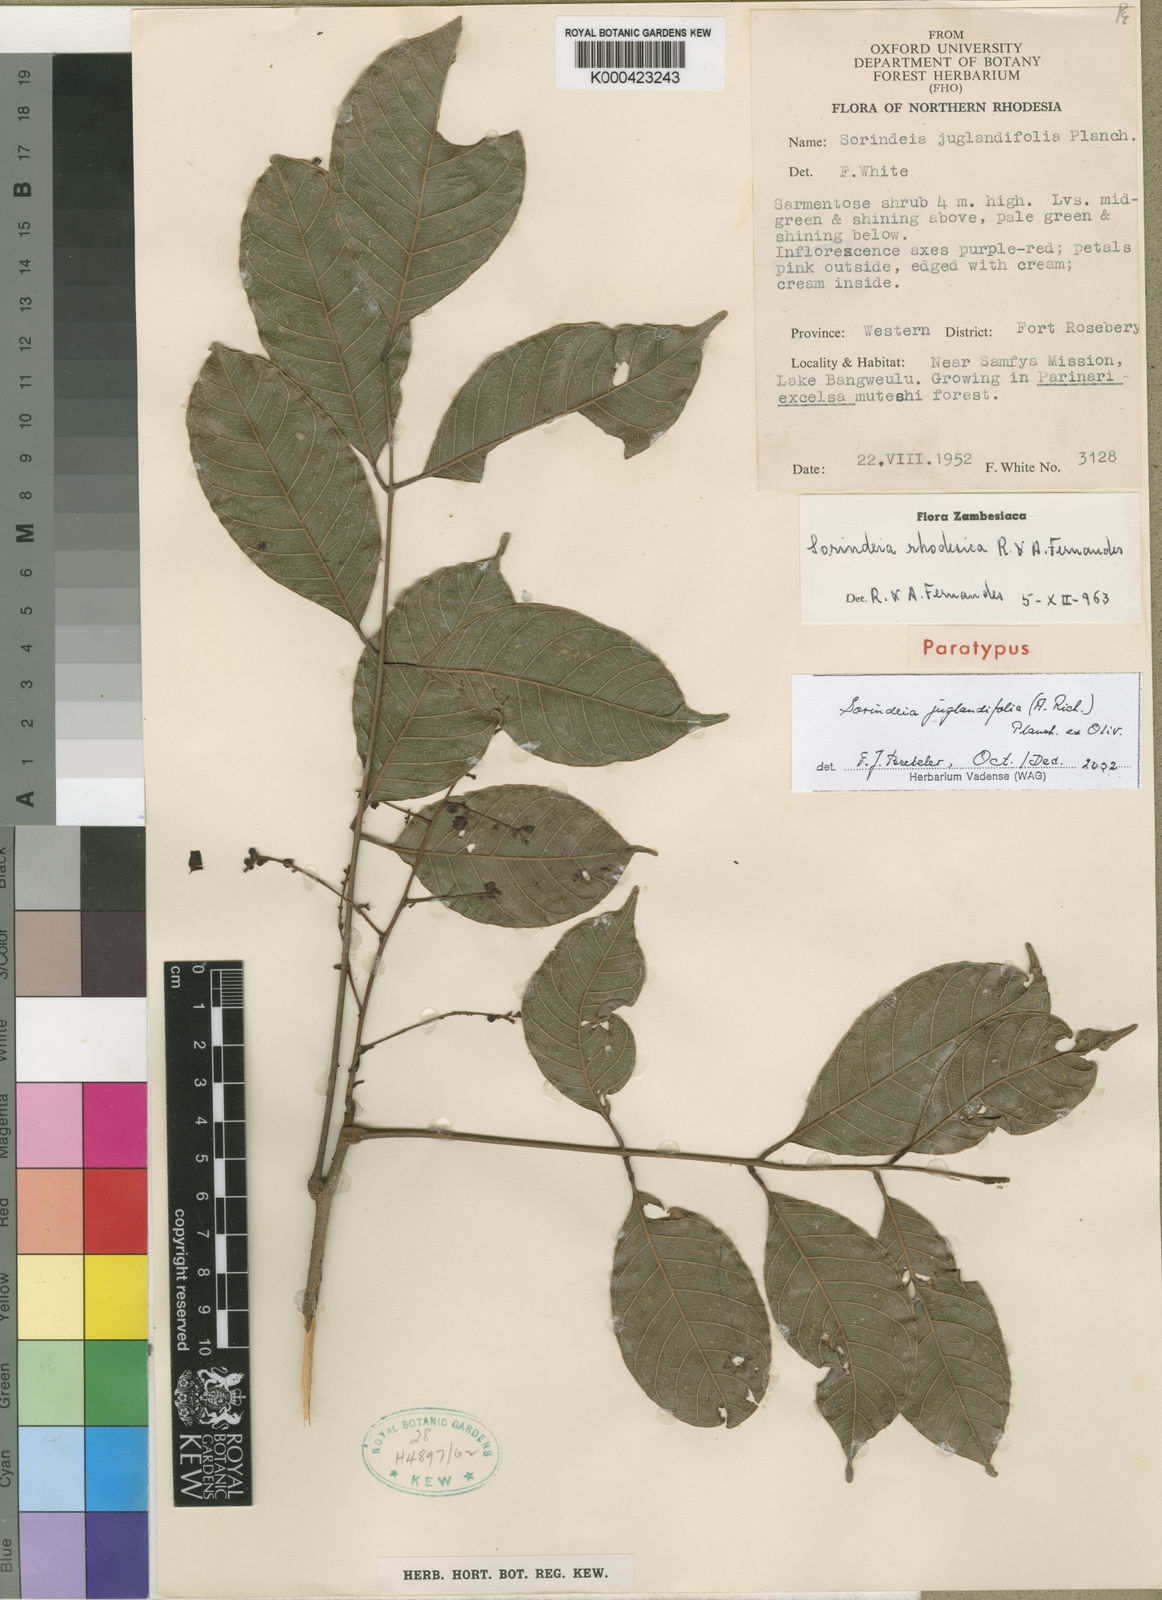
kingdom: Plantae
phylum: Tracheophyta
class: Magnoliopsida
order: Sapindales
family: Anacardiaceae
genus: Sorindeia
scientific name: Sorindeia juglandifolia
